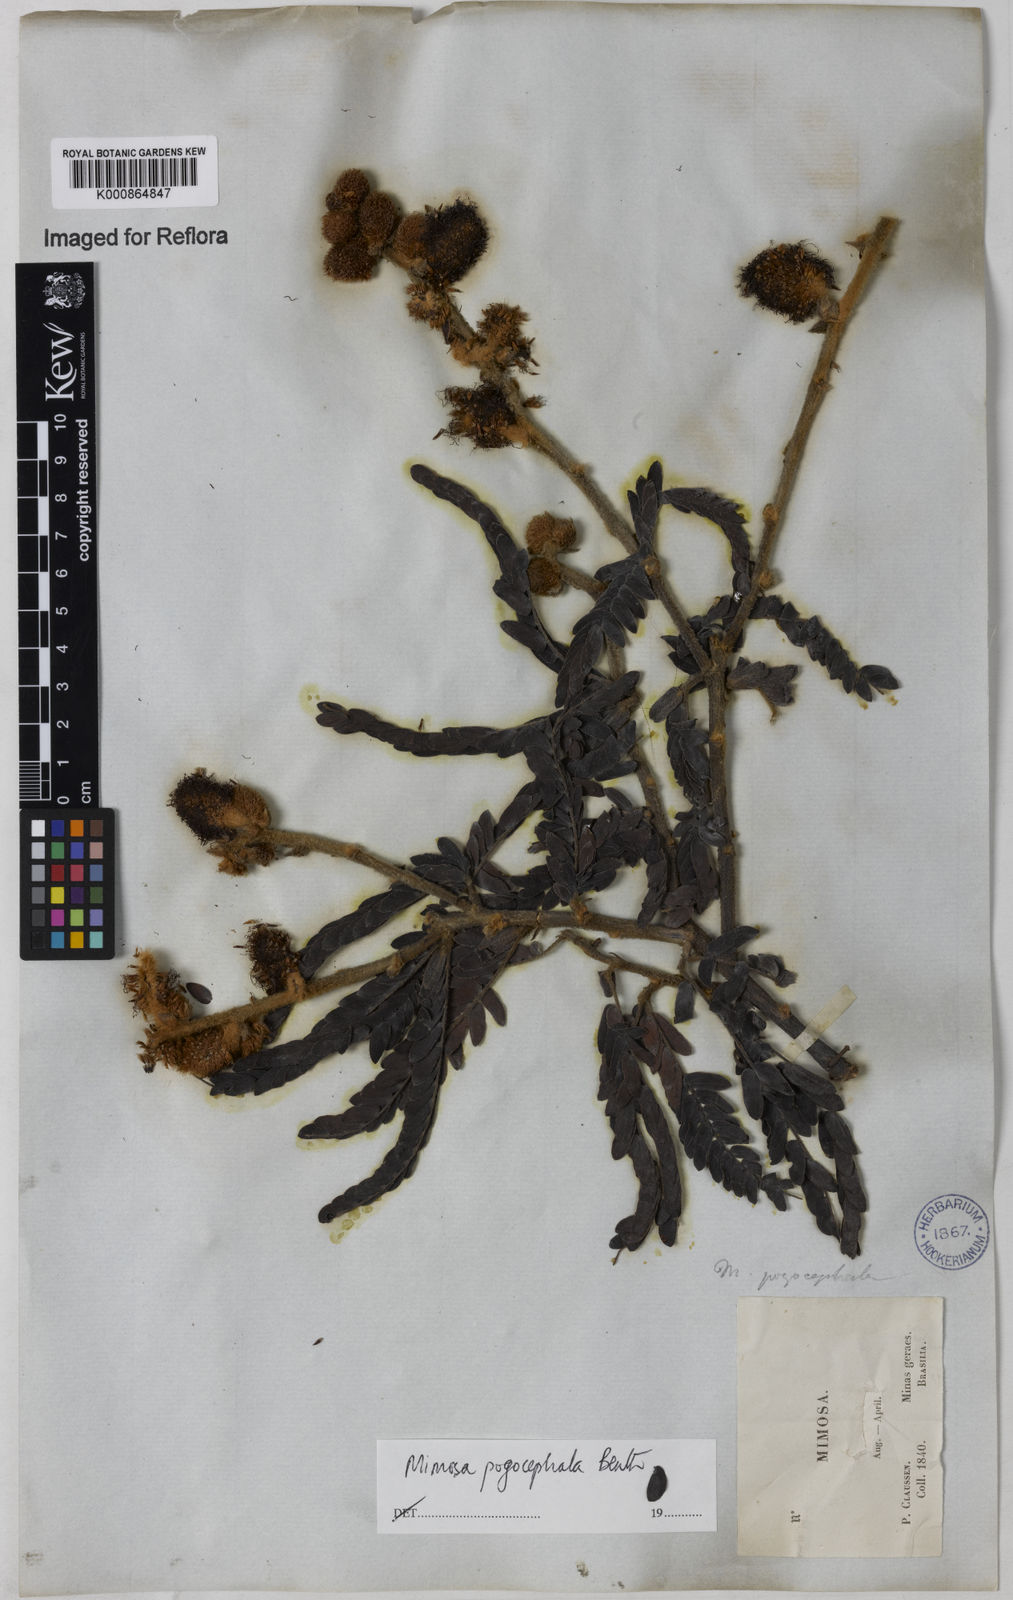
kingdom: Plantae
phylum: Tracheophyta
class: Magnoliopsida
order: Fabales
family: Fabaceae
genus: Mimosa
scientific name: Mimosa pogocephala
